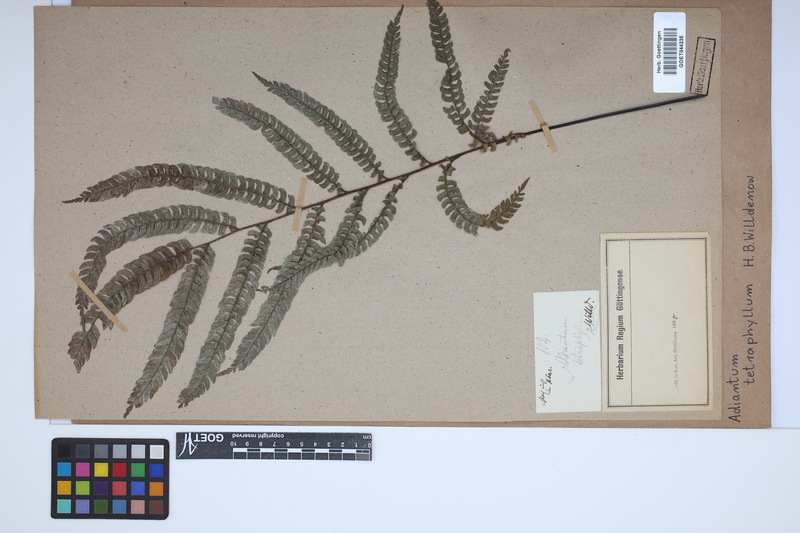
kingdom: Plantae
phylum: Tracheophyta
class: Polypodiopsida
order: Polypodiales
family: Pteridaceae
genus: Adiantum
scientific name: Adiantum tetraphyllum
